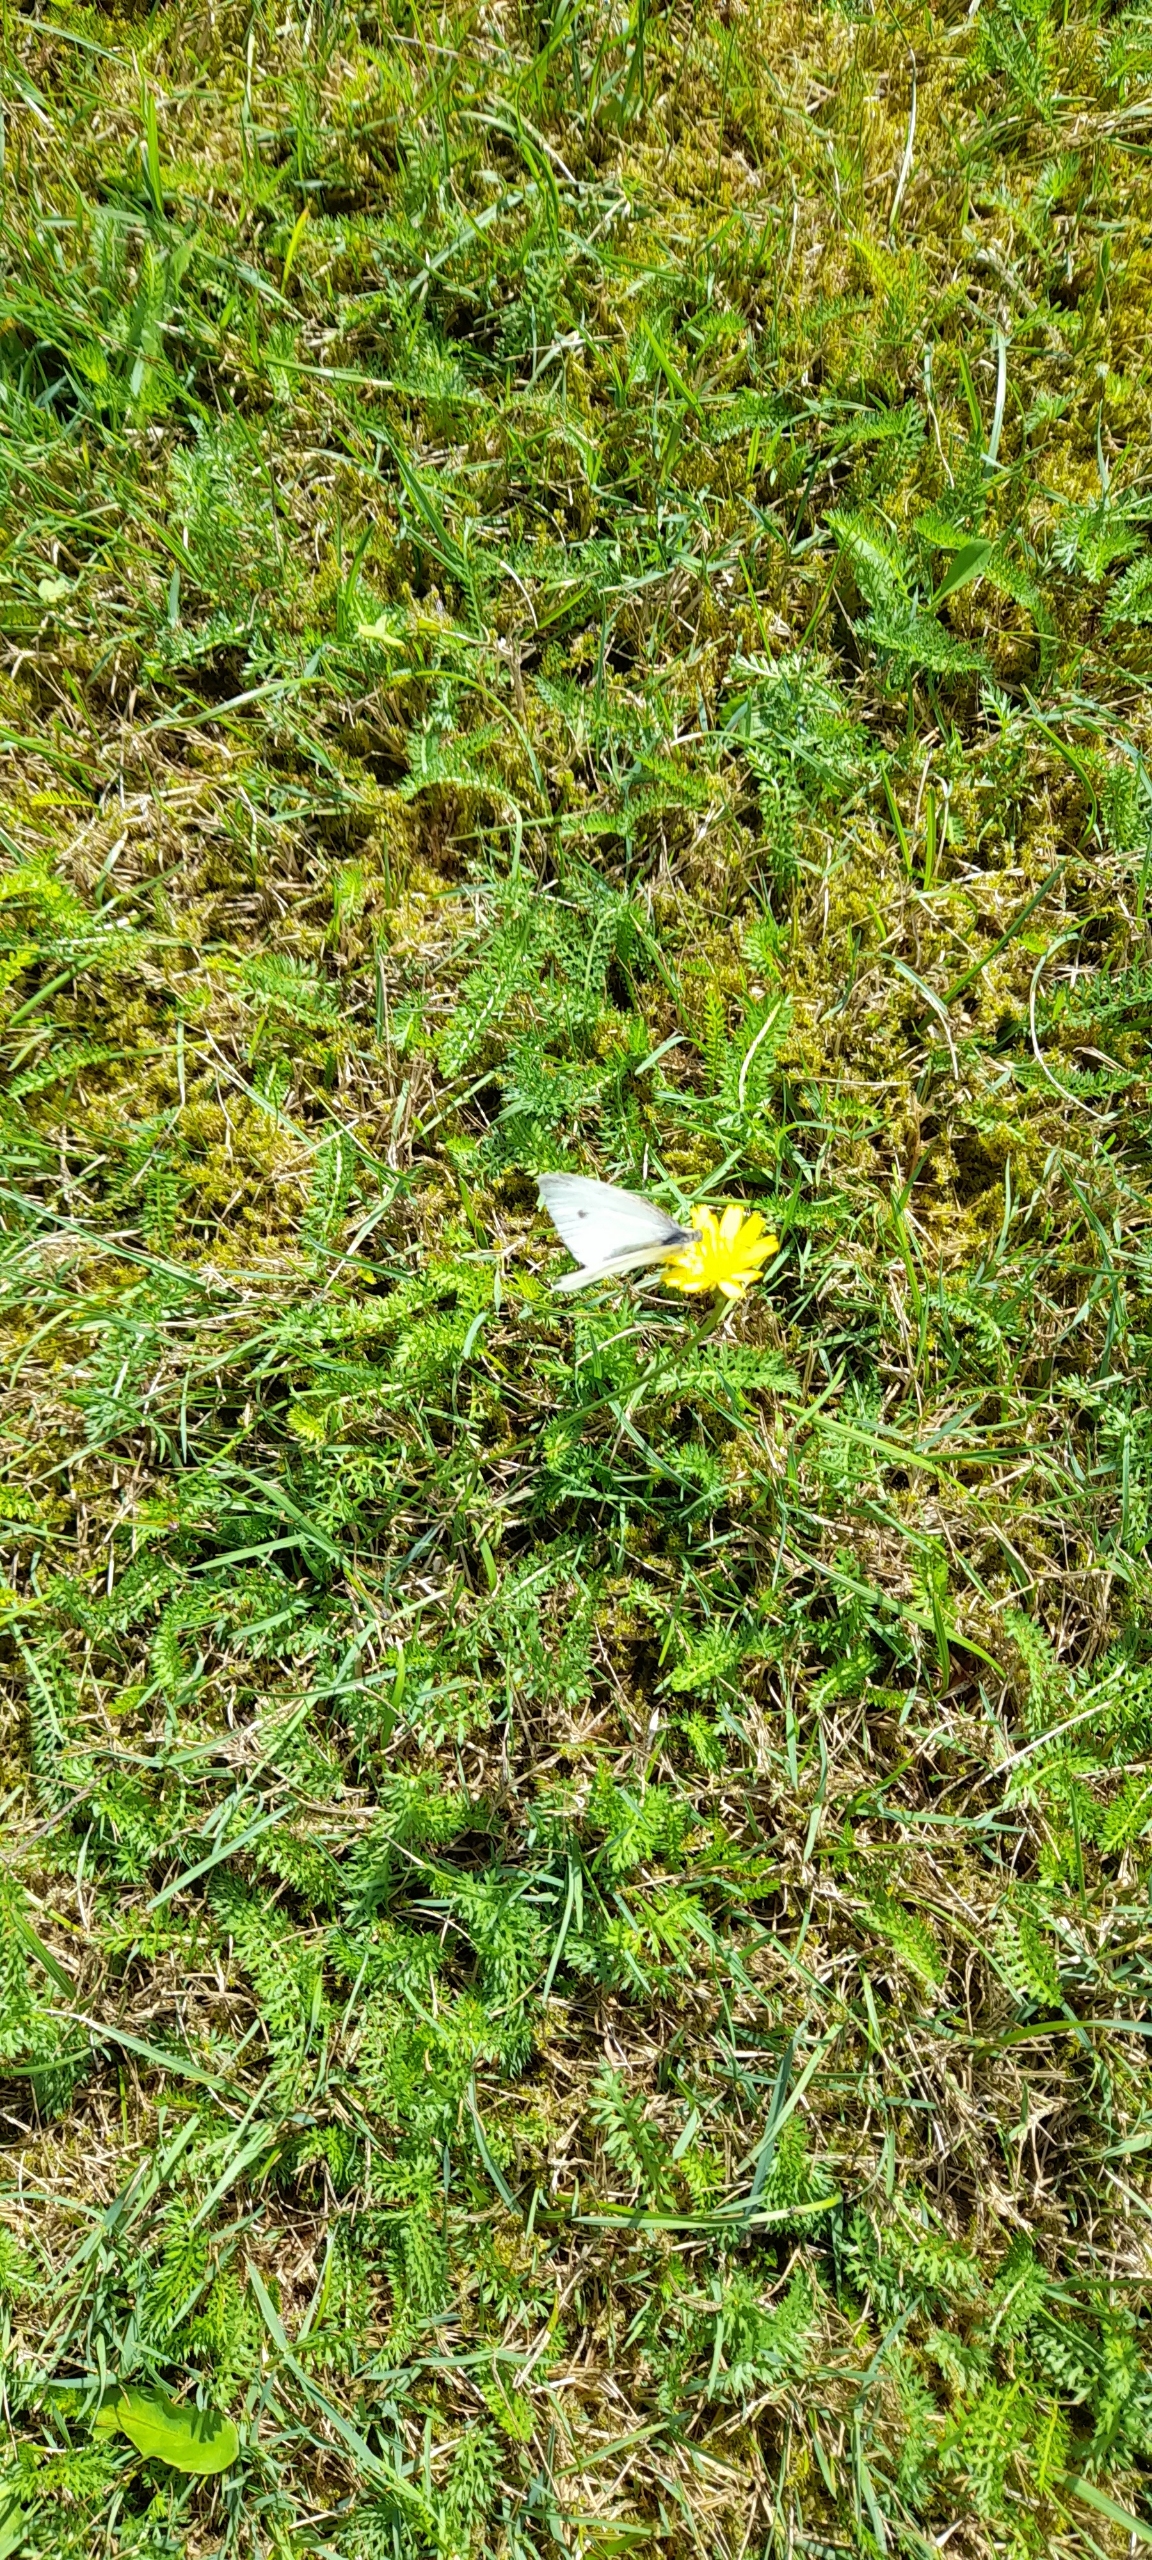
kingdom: Animalia
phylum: Arthropoda
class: Insecta
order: Lepidoptera
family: Pieridae
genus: Pieris
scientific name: Pieris rapae
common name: Lille kålsommerfugl
